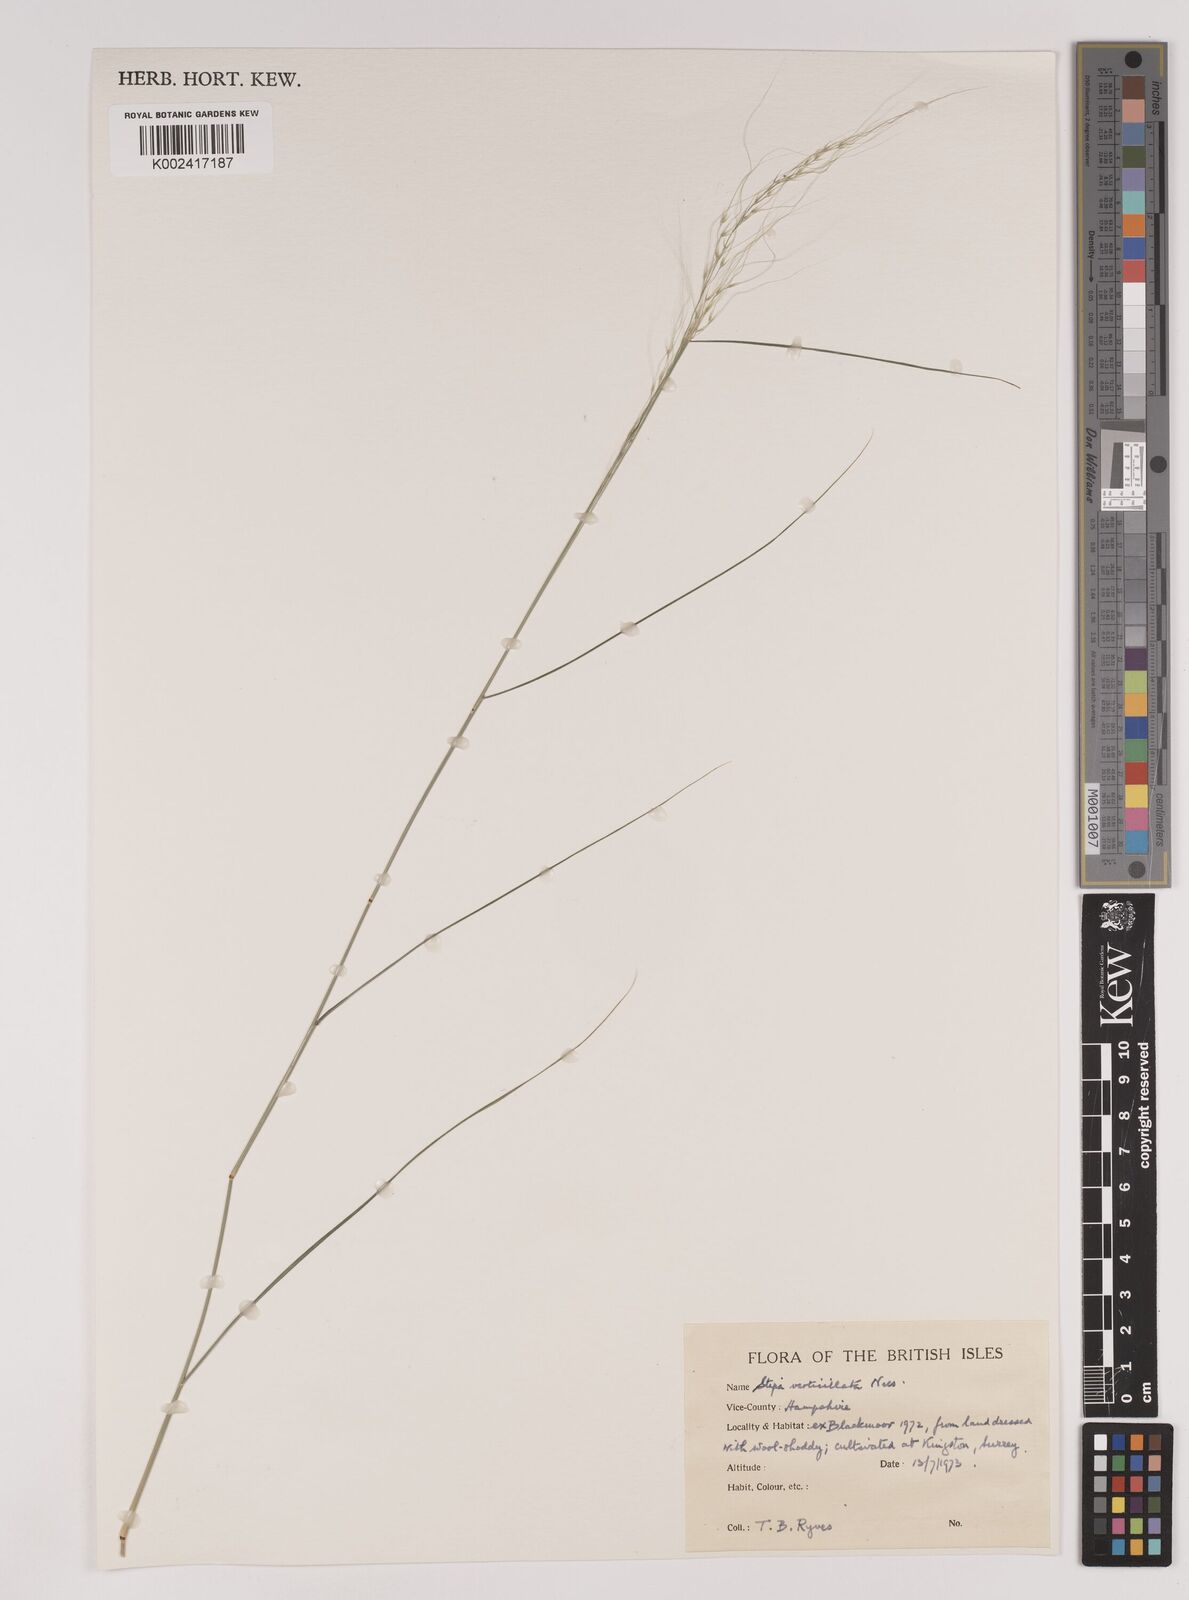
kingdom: Plantae
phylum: Tracheophyta
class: Liliopsida
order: Poales
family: Poaceae
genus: Austrostipa
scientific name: Austrostipa verticillata
